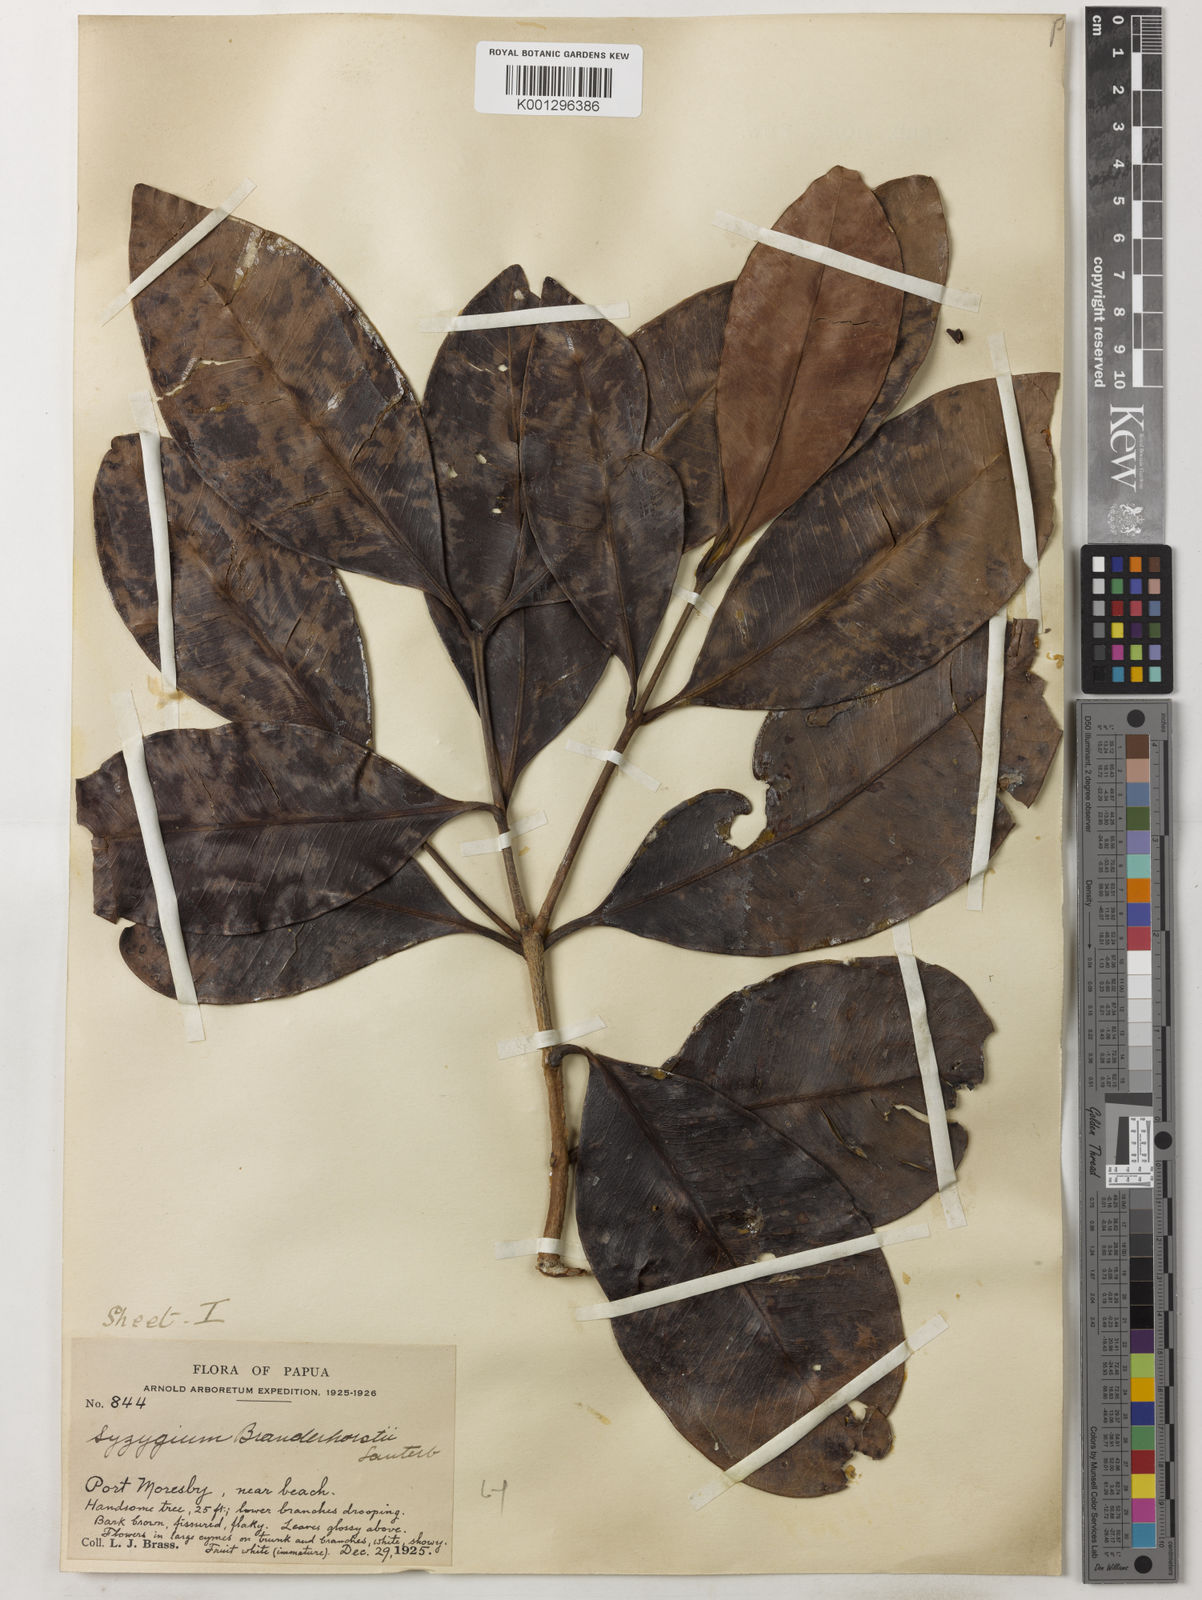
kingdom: Plantae
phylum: Tracheophyta
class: Magnoliopsida
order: Myrtales
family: Myrtaceae
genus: Syzygium
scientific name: Syzygium branderhorstii
